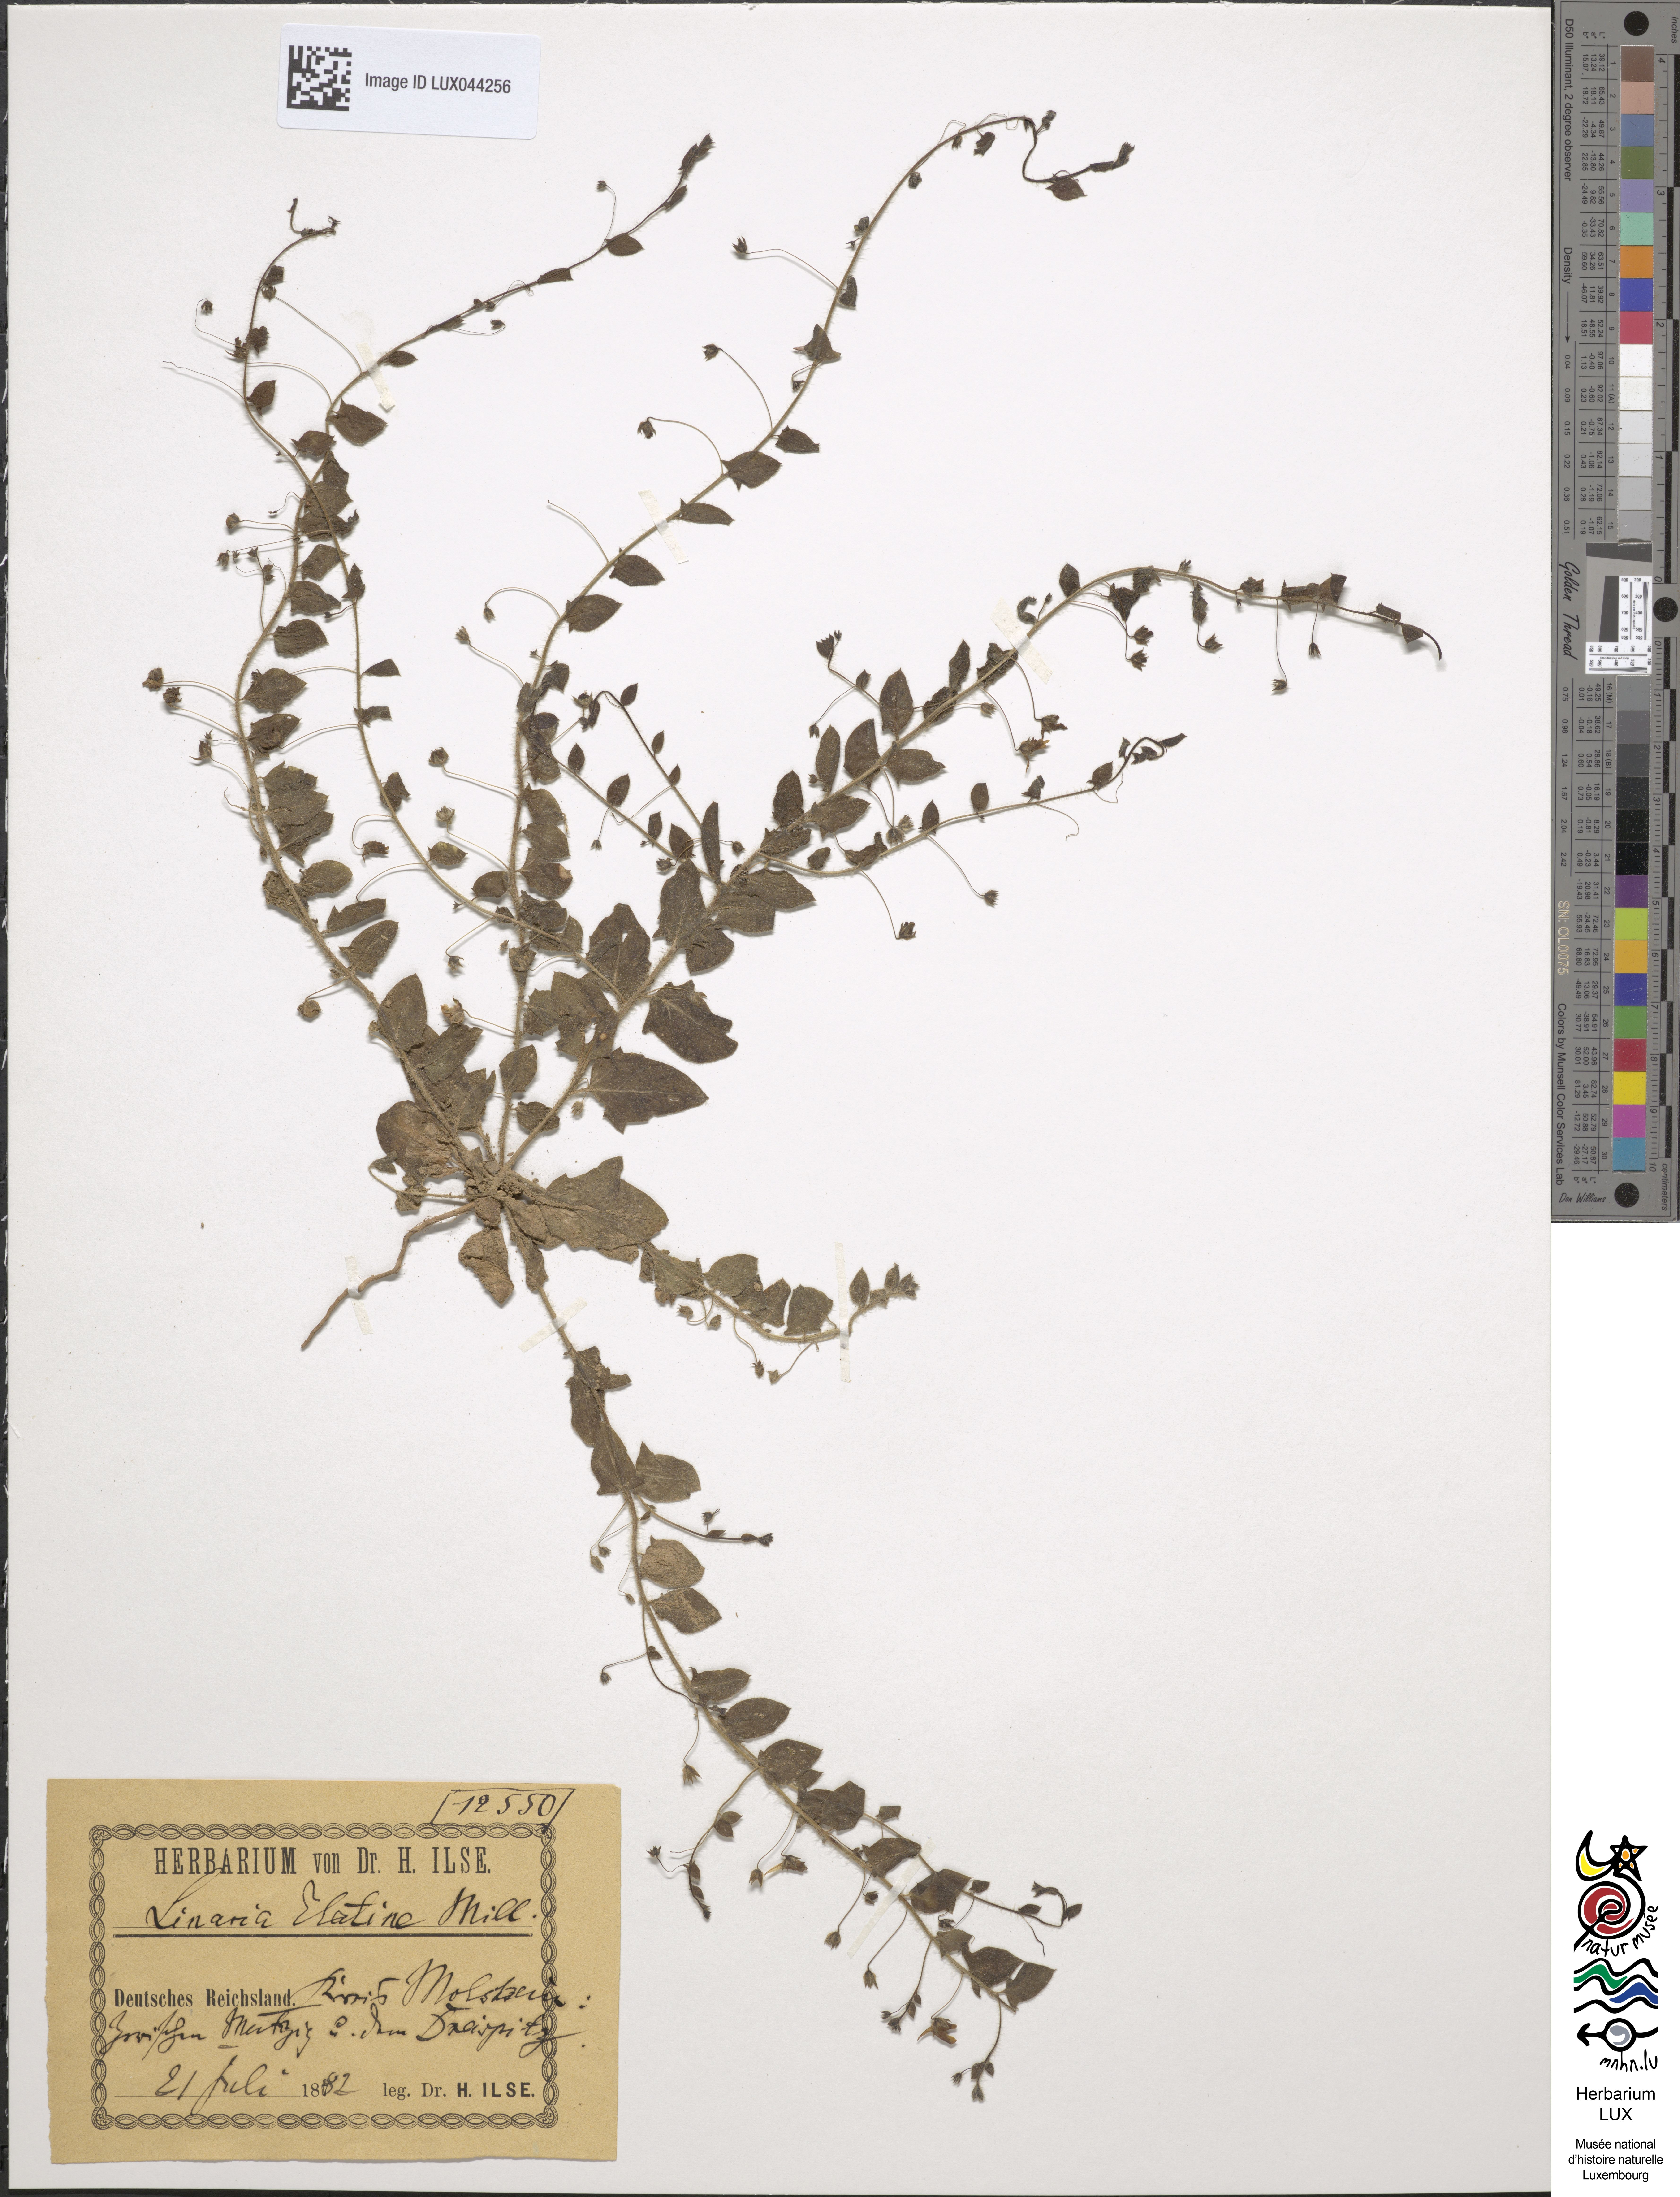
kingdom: Plantae
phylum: Tracheophyta
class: Magnoliopsida
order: Lamiales
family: Plantaginaceae
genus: Kickxia
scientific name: Kickxia elatine
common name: Sharp-leaved fluellen
